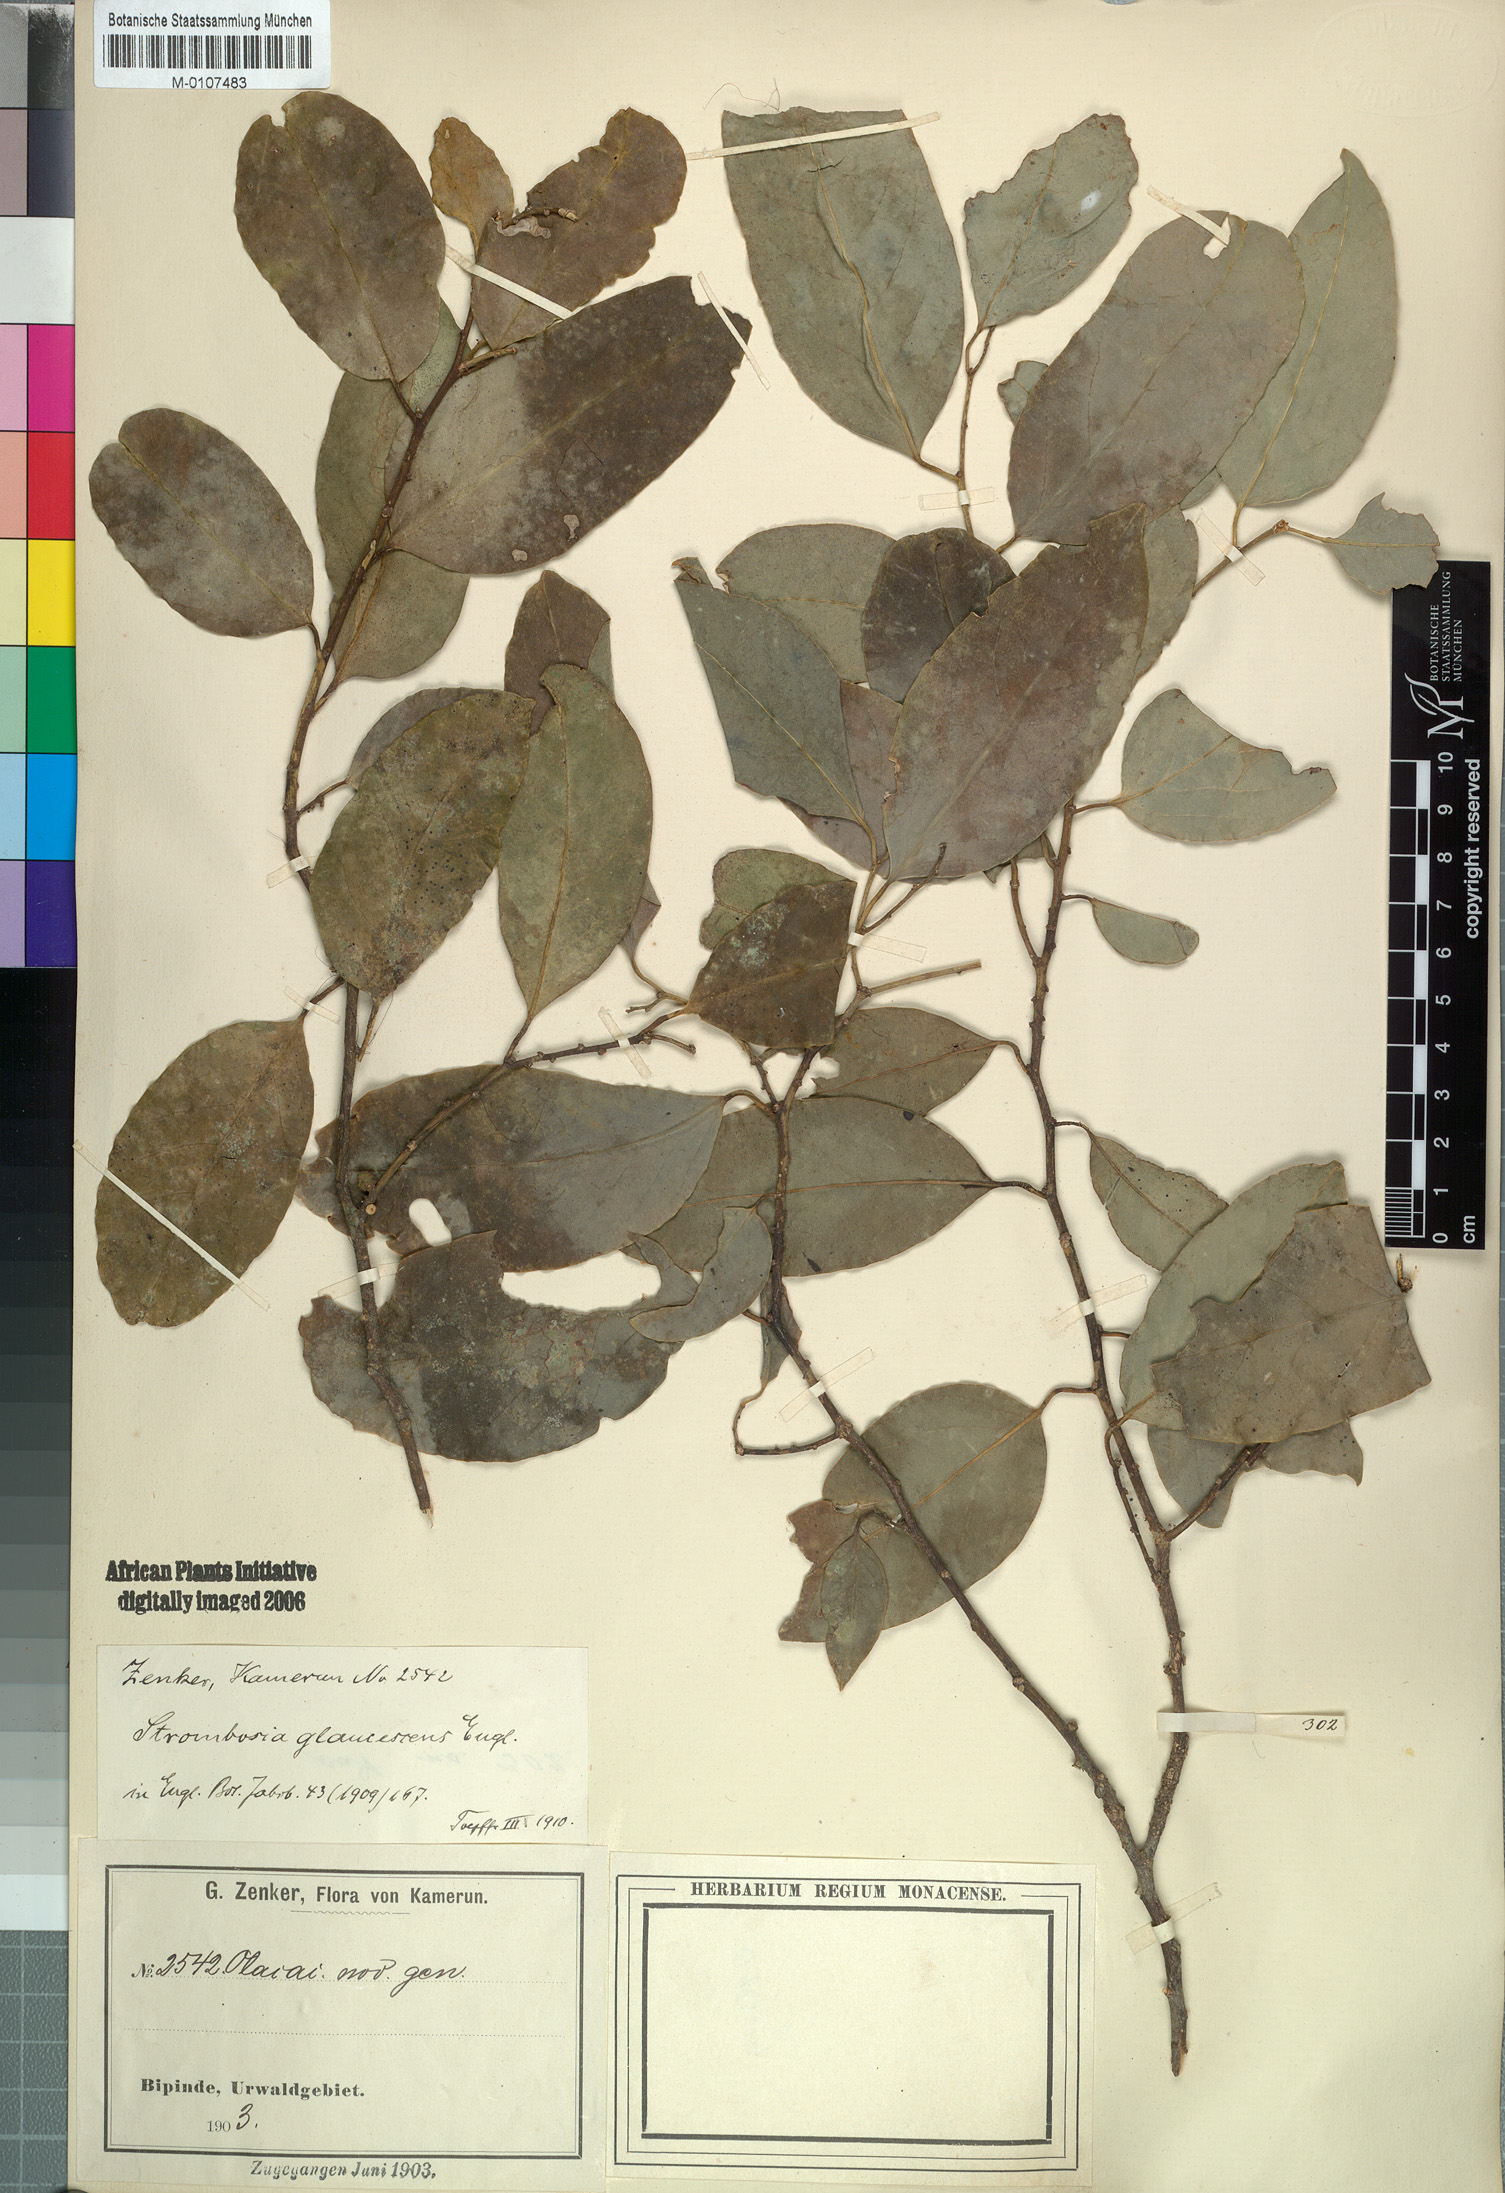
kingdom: Plantae
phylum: Tracheophyta
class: Magnoliopsida
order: Santalales
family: Strombosiaceae
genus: Strombosiopsis
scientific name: Strombosiopsis glaucescens
